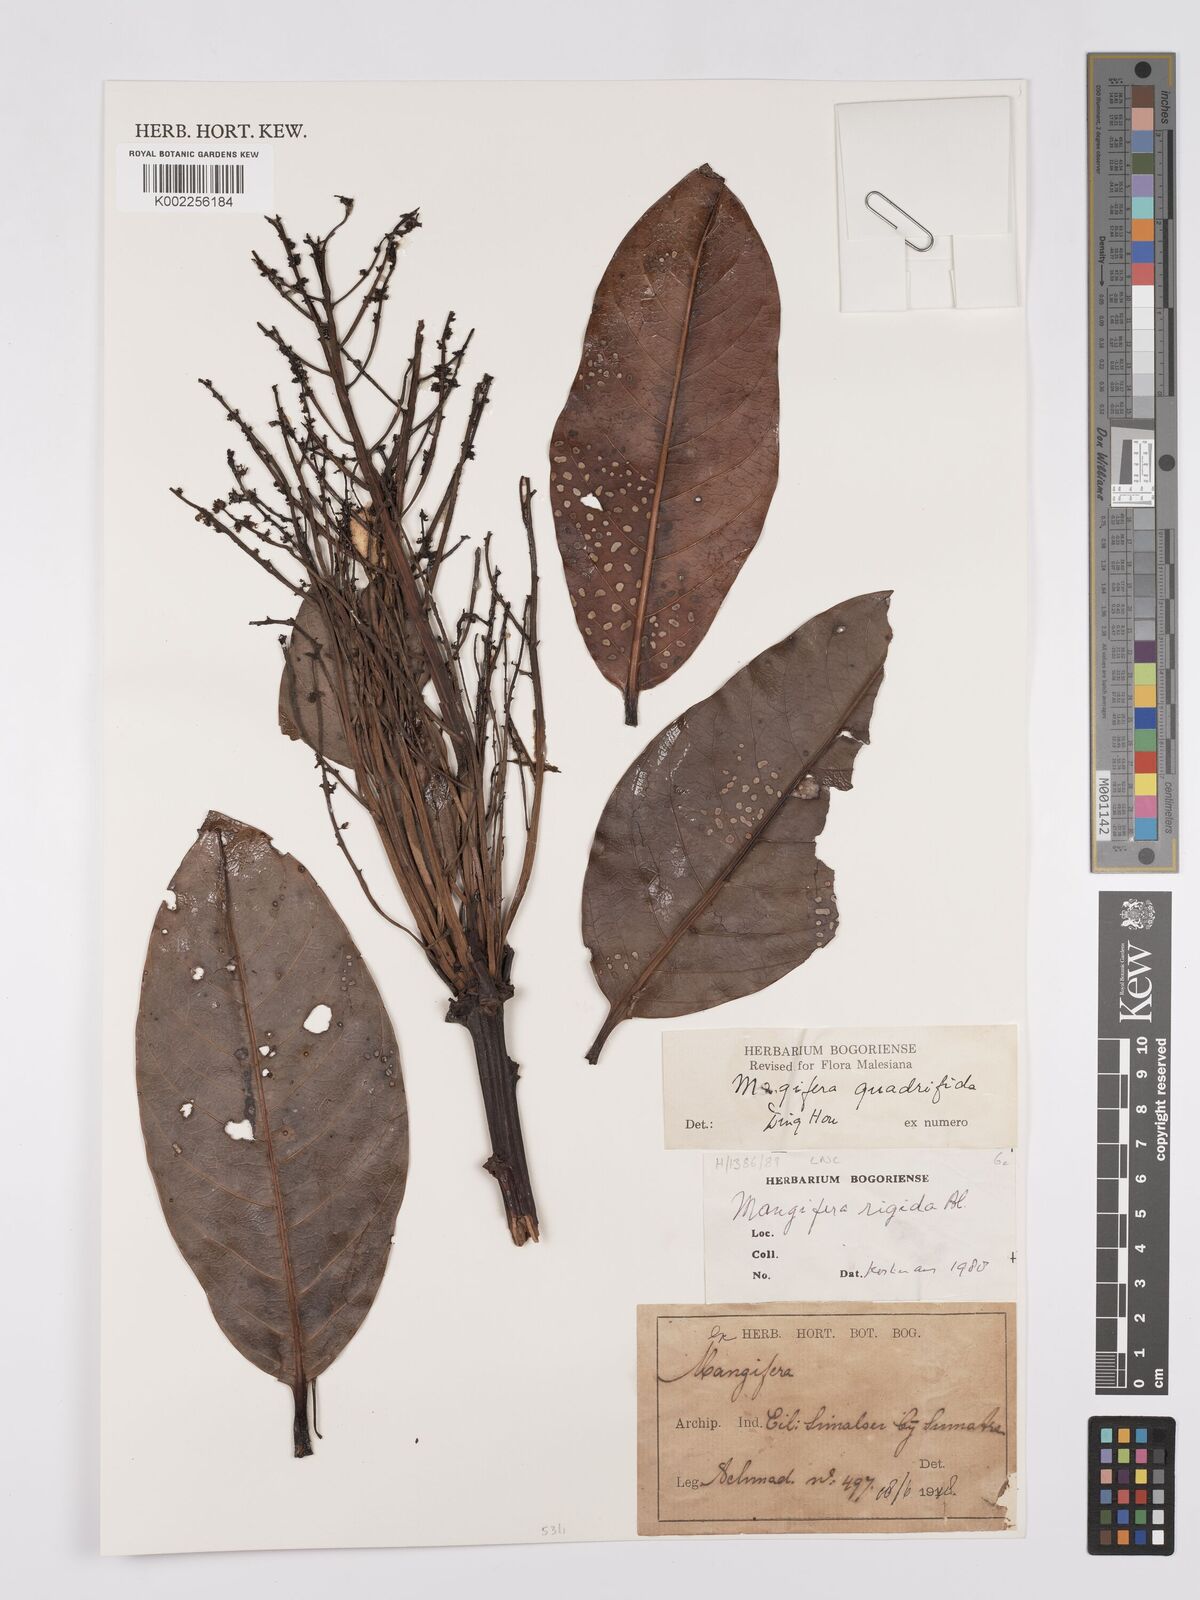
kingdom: Plantae
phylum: Tracheophyta
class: Magnoliopsida
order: Sapindales
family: Anacardiaceae
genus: Mangifera
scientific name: Mangifera quadrifida
